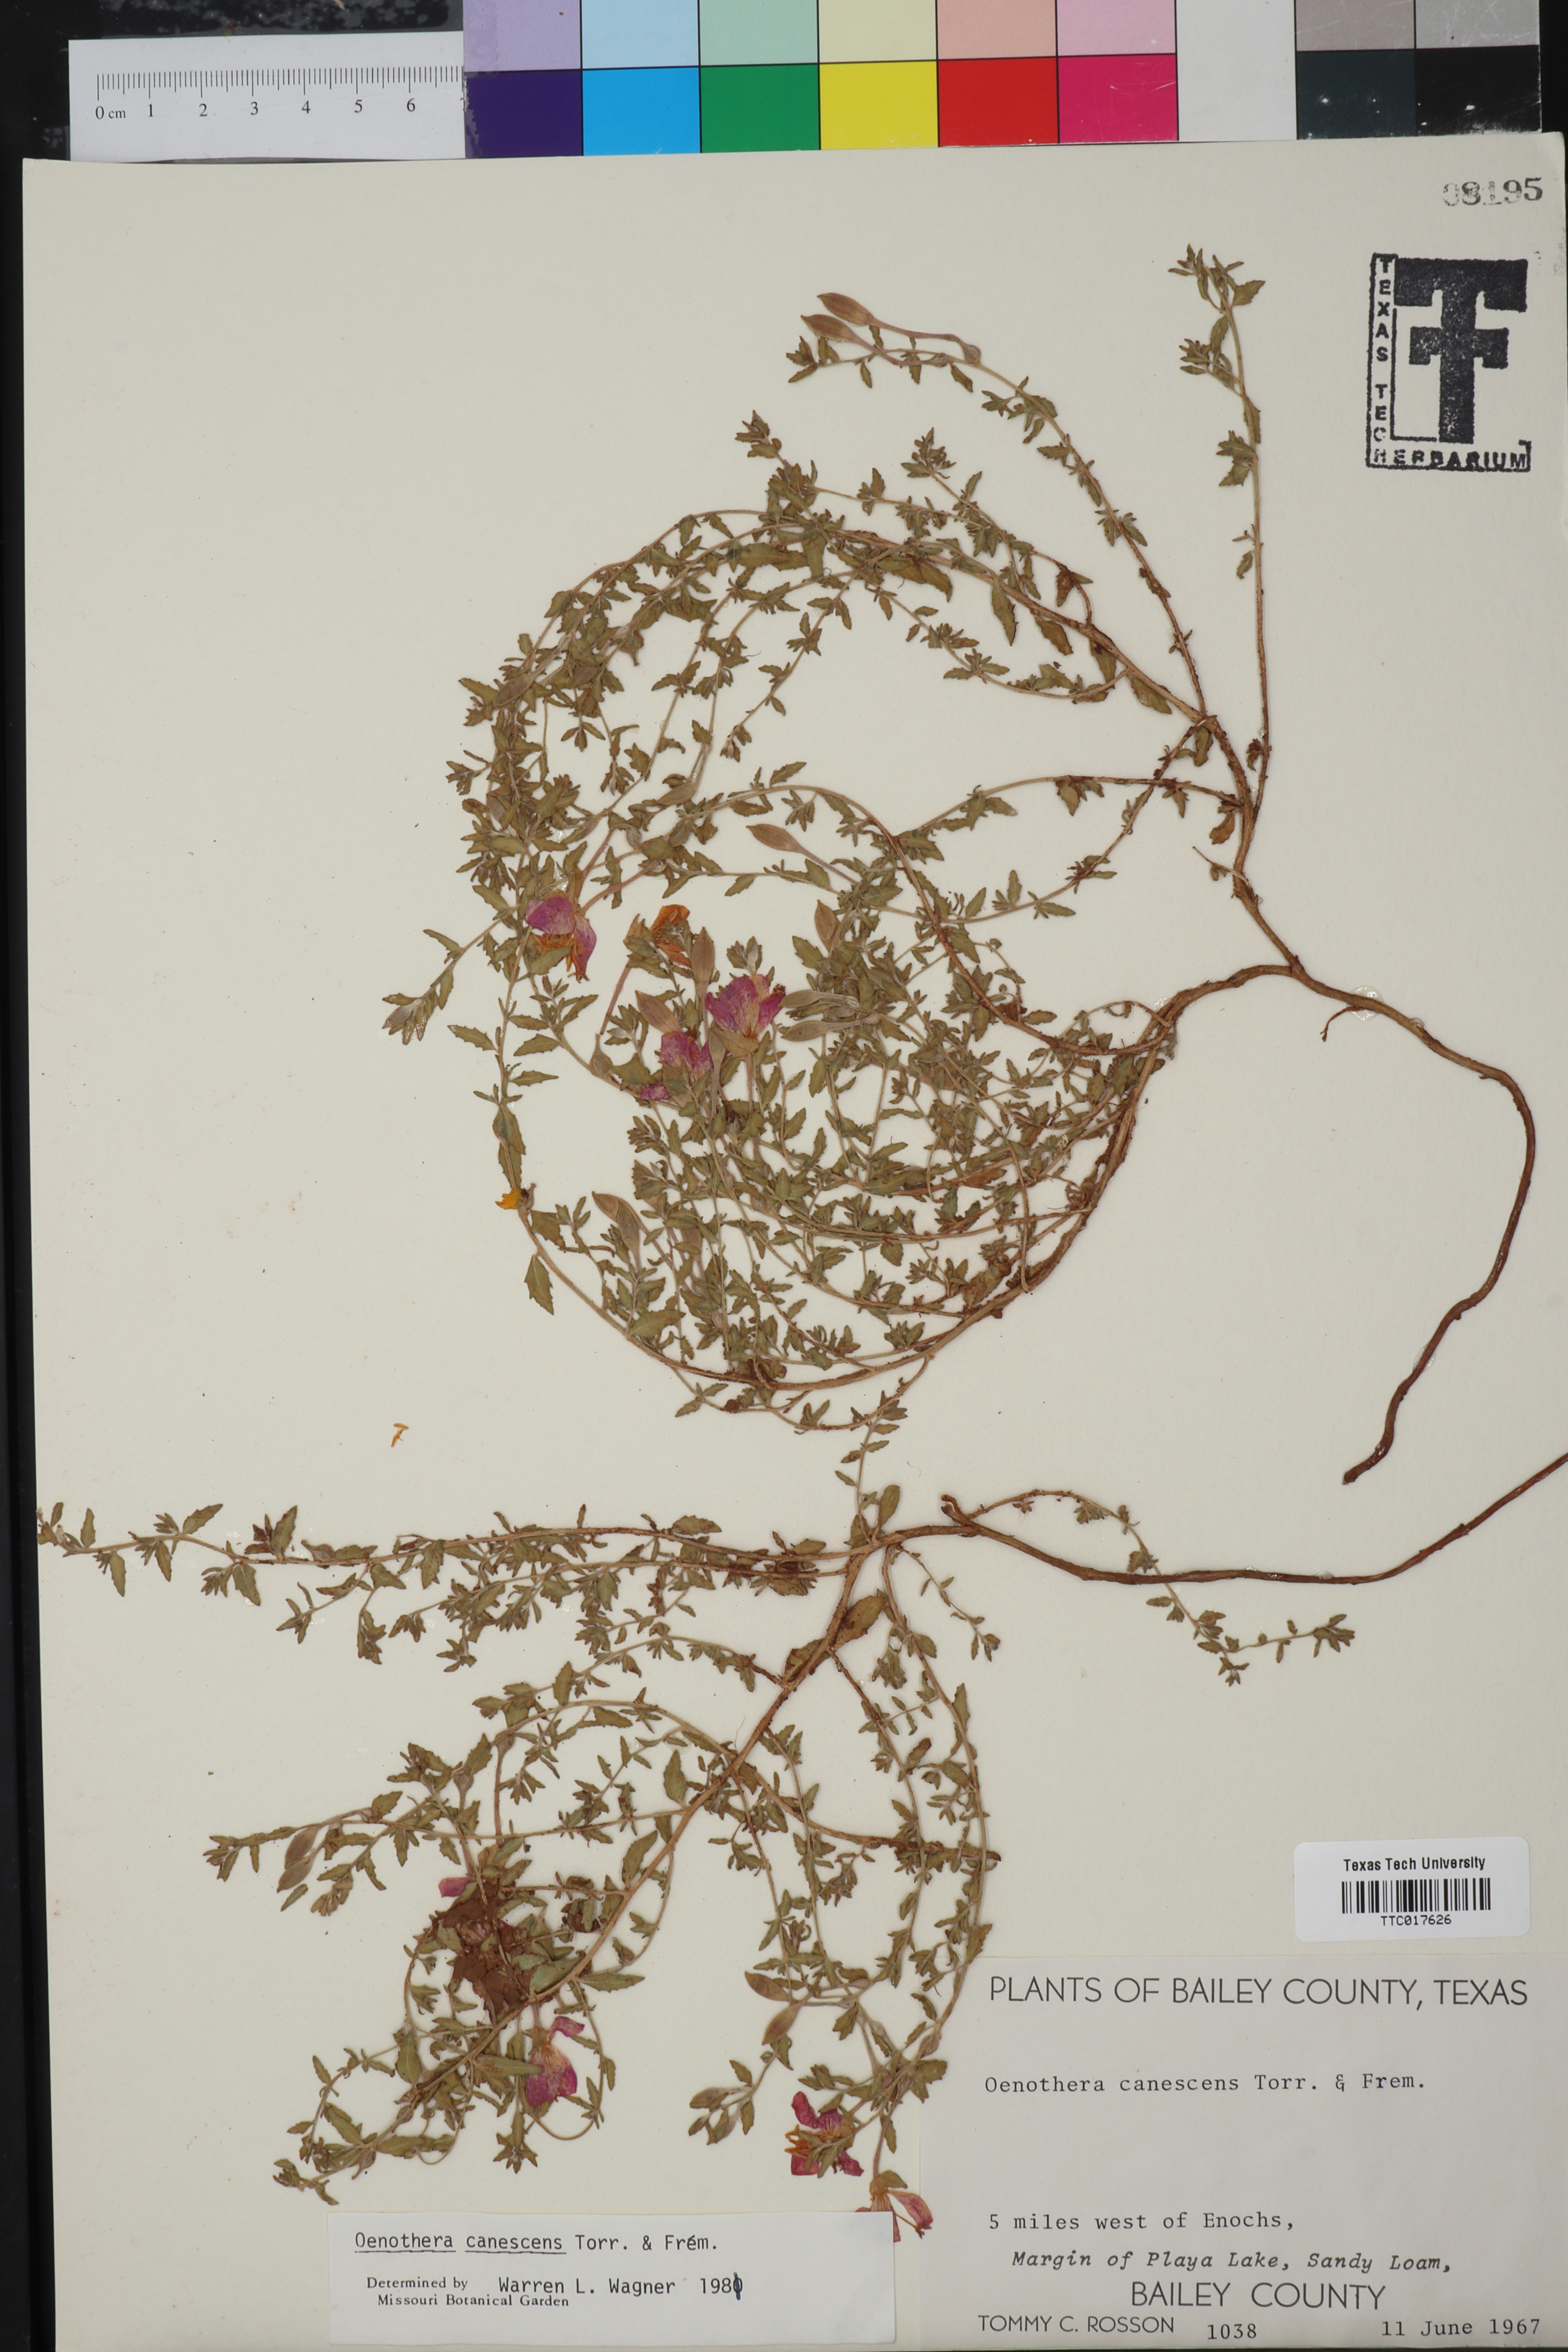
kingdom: Plantae
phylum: Tracheophyta
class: Magnoliopsida
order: Myrtales
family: Onagraceae
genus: Oenothera
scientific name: Oenothera canescens
